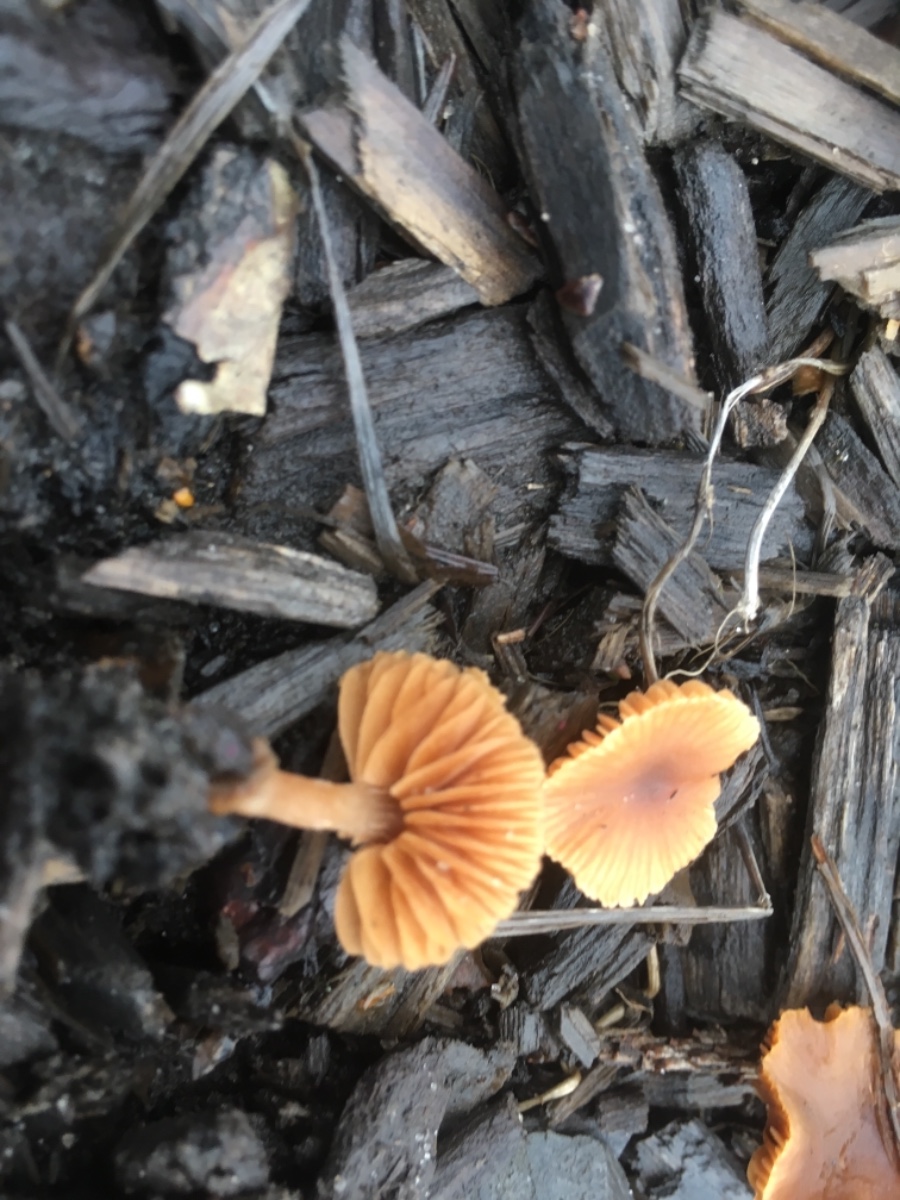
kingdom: Fungi
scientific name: Fungi
